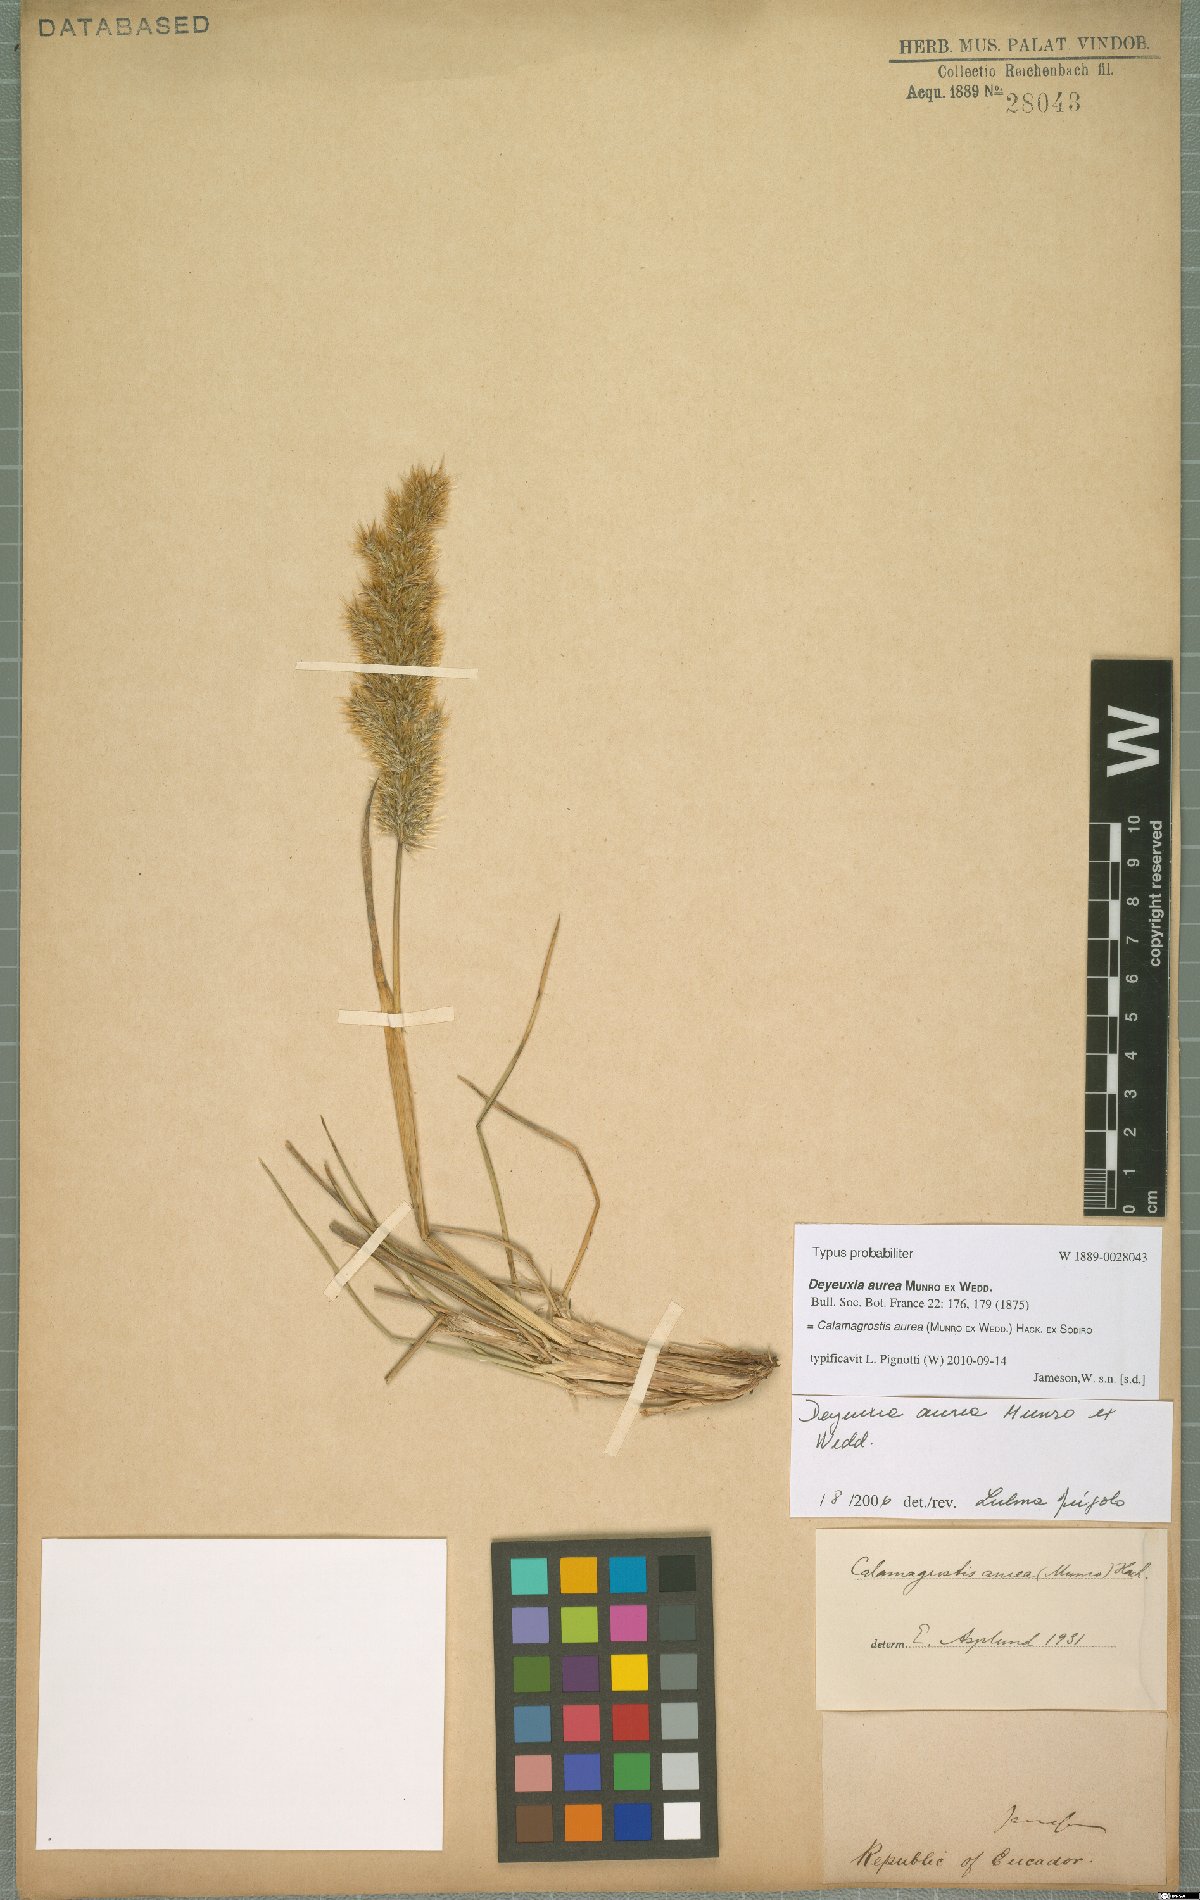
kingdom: Plantae
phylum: Tracheophyta
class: Liliopsida
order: Poales
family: Poaceae
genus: Deschampsia
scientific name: Deschampsia aurea
